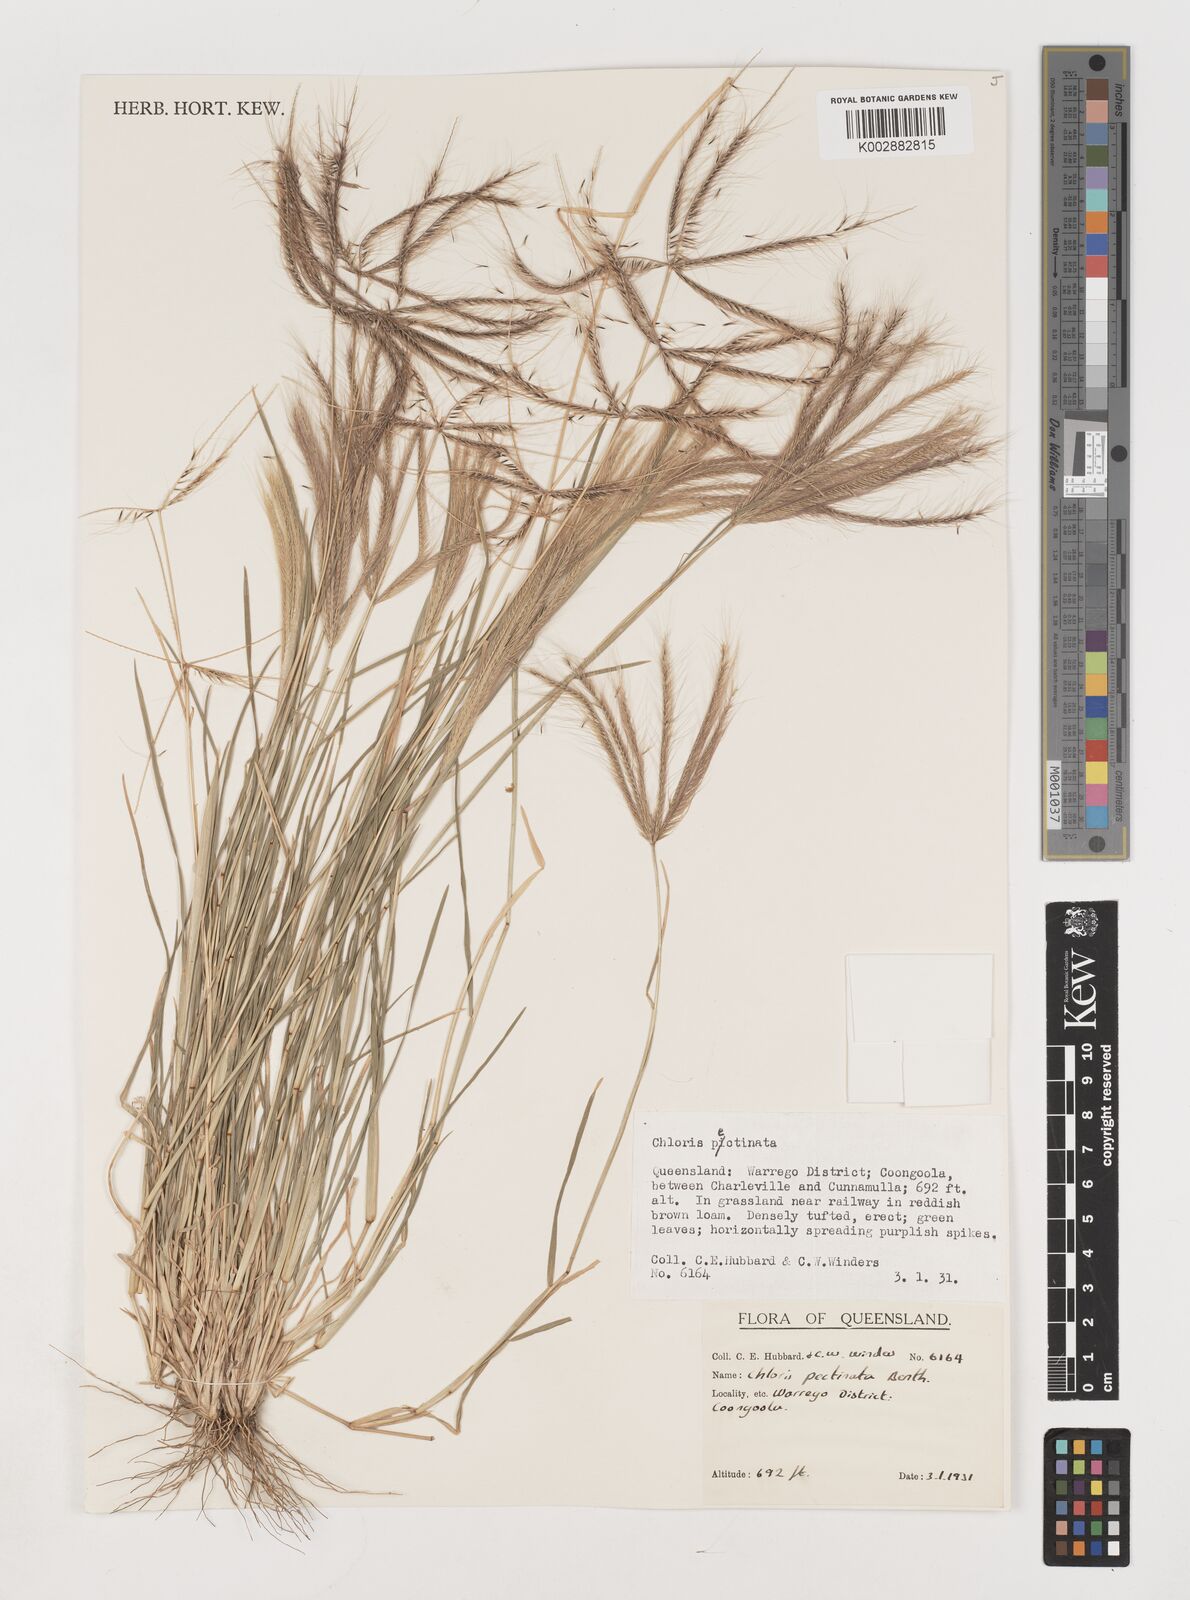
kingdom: Plantae
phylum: Tracheophyta
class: Liliopsida
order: Poales
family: Poaceae
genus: Chloris
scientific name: Chloris pectinata
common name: Comb windmill grass
